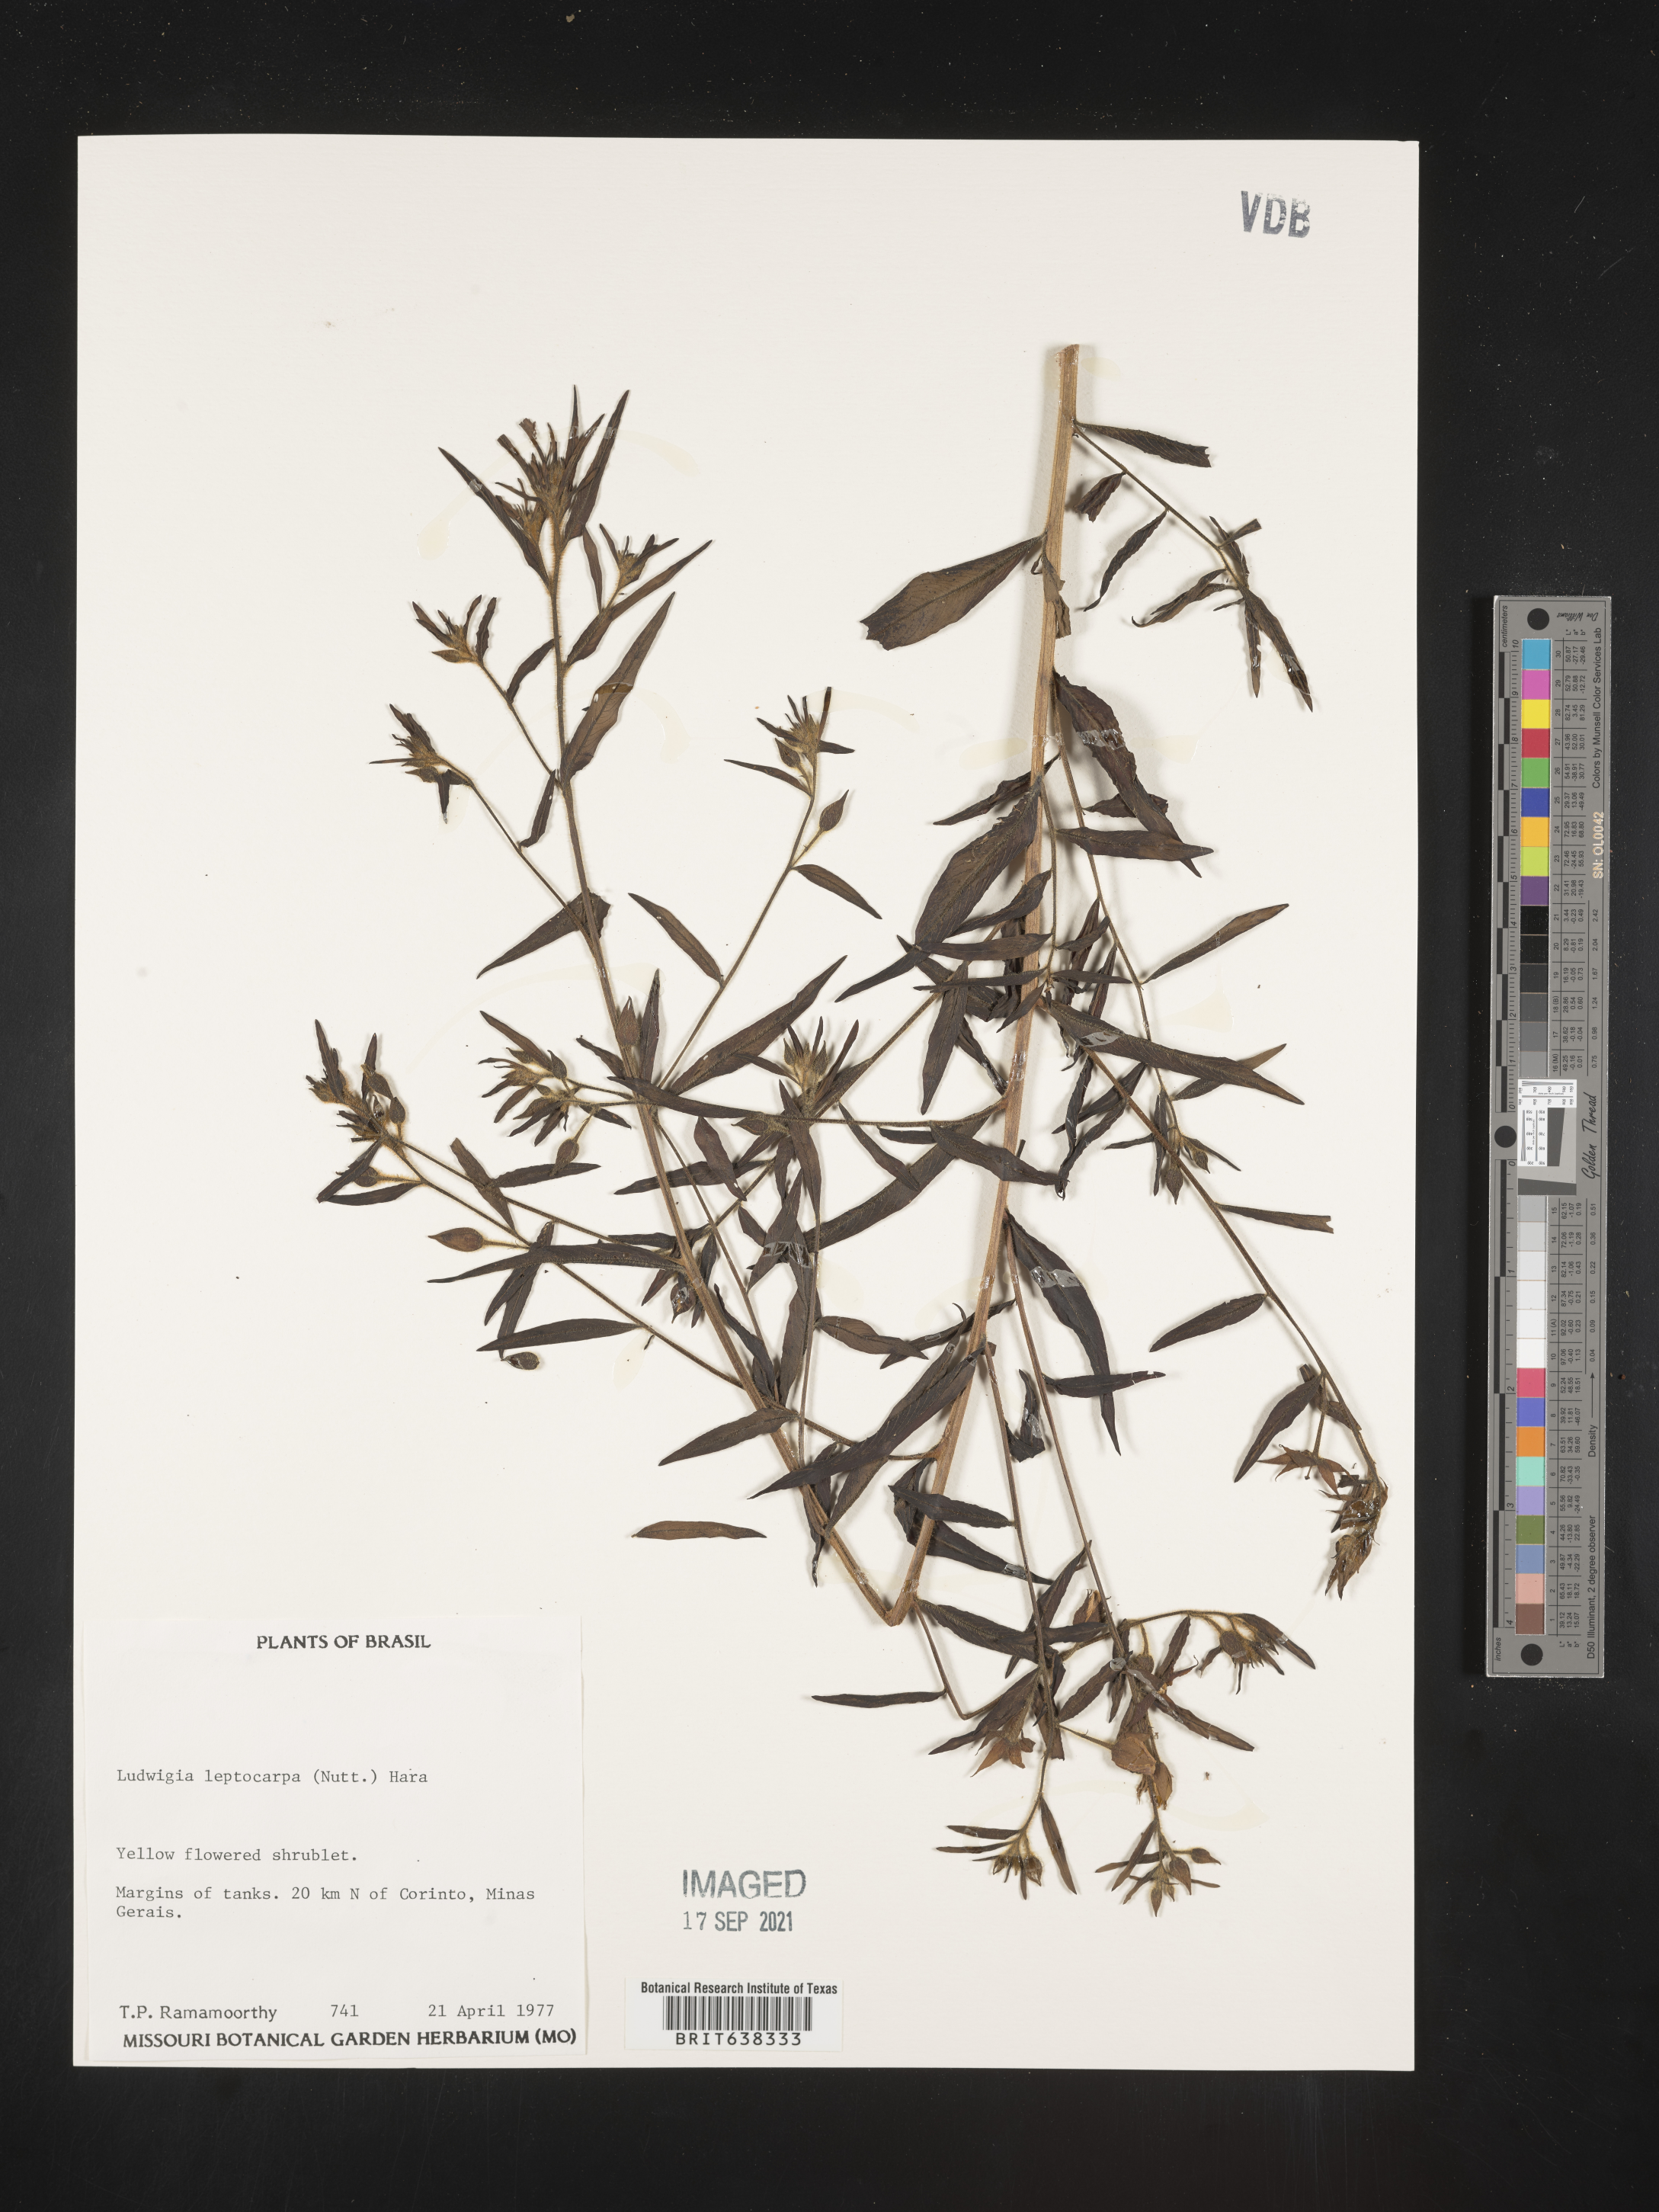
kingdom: Plantae
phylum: Tracheophyta
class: Magnoliopsida
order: Myrtales
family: Onagraceae
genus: Ludwigia
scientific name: Ludwigia
